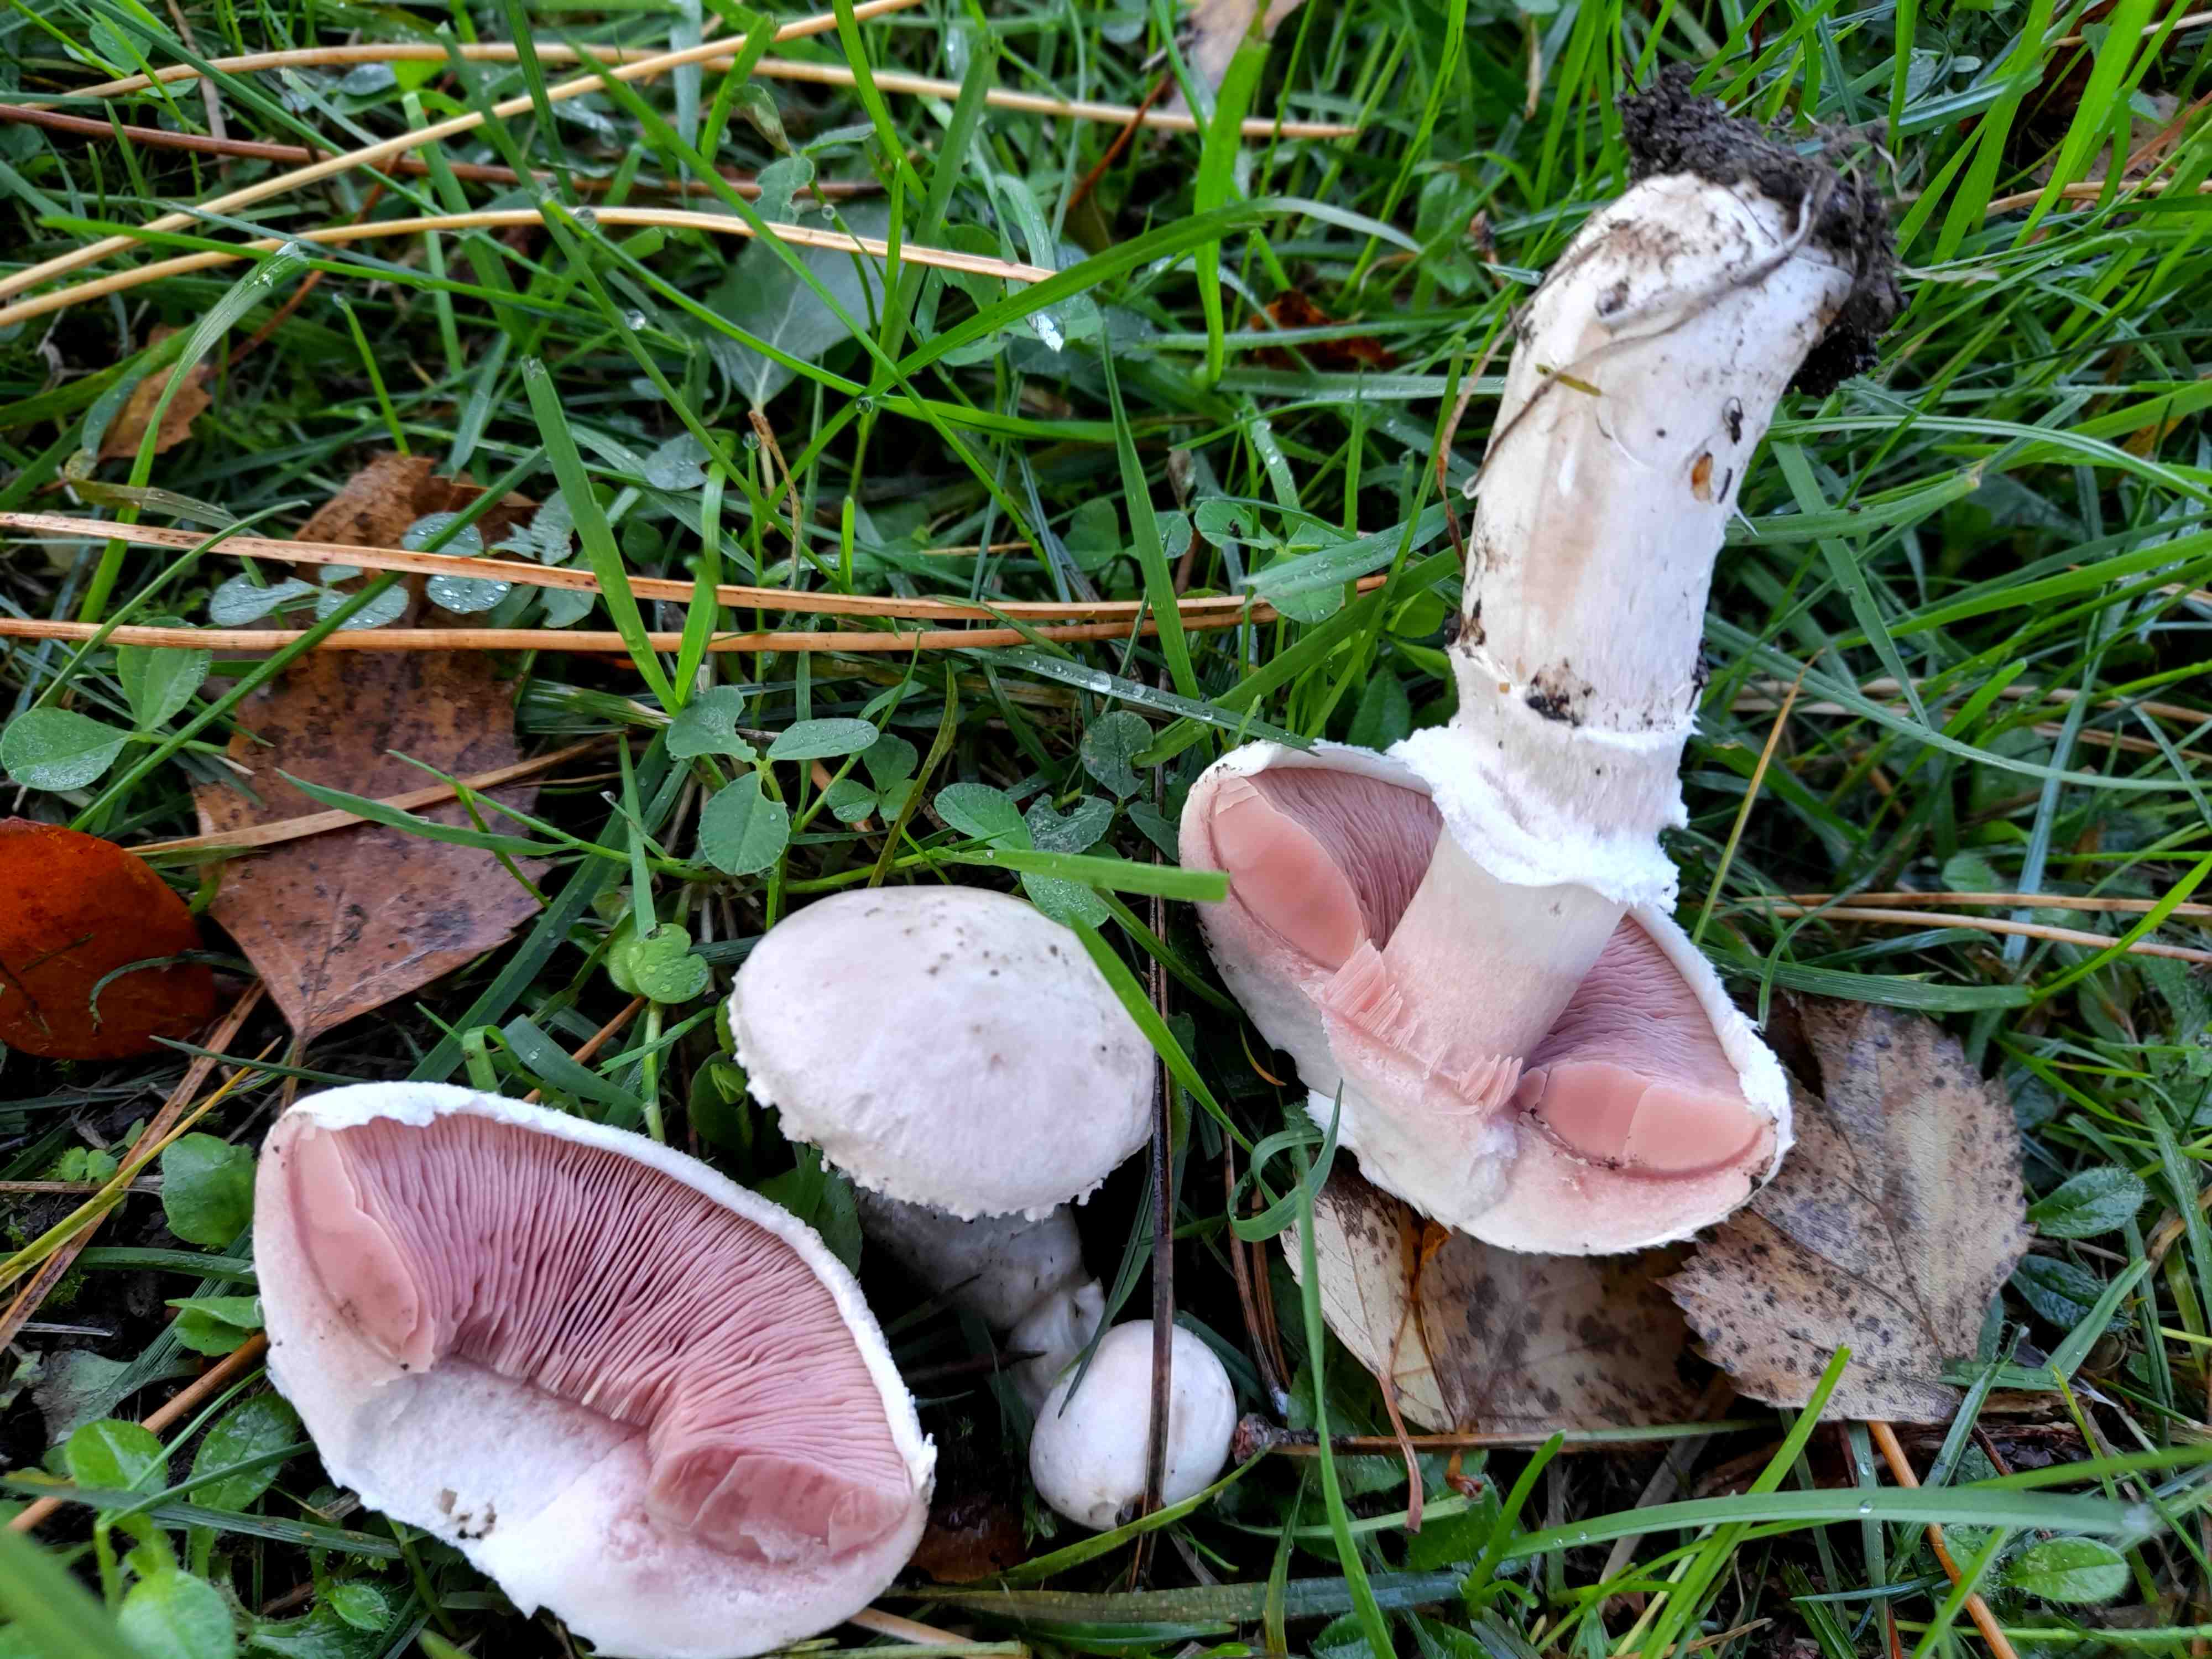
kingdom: Fungi
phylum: Basidiomycota
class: Agaricomycetes
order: Agaricales
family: Agaricaceae
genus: Agaricus
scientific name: Agaricus campestris
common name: mark-champignon
